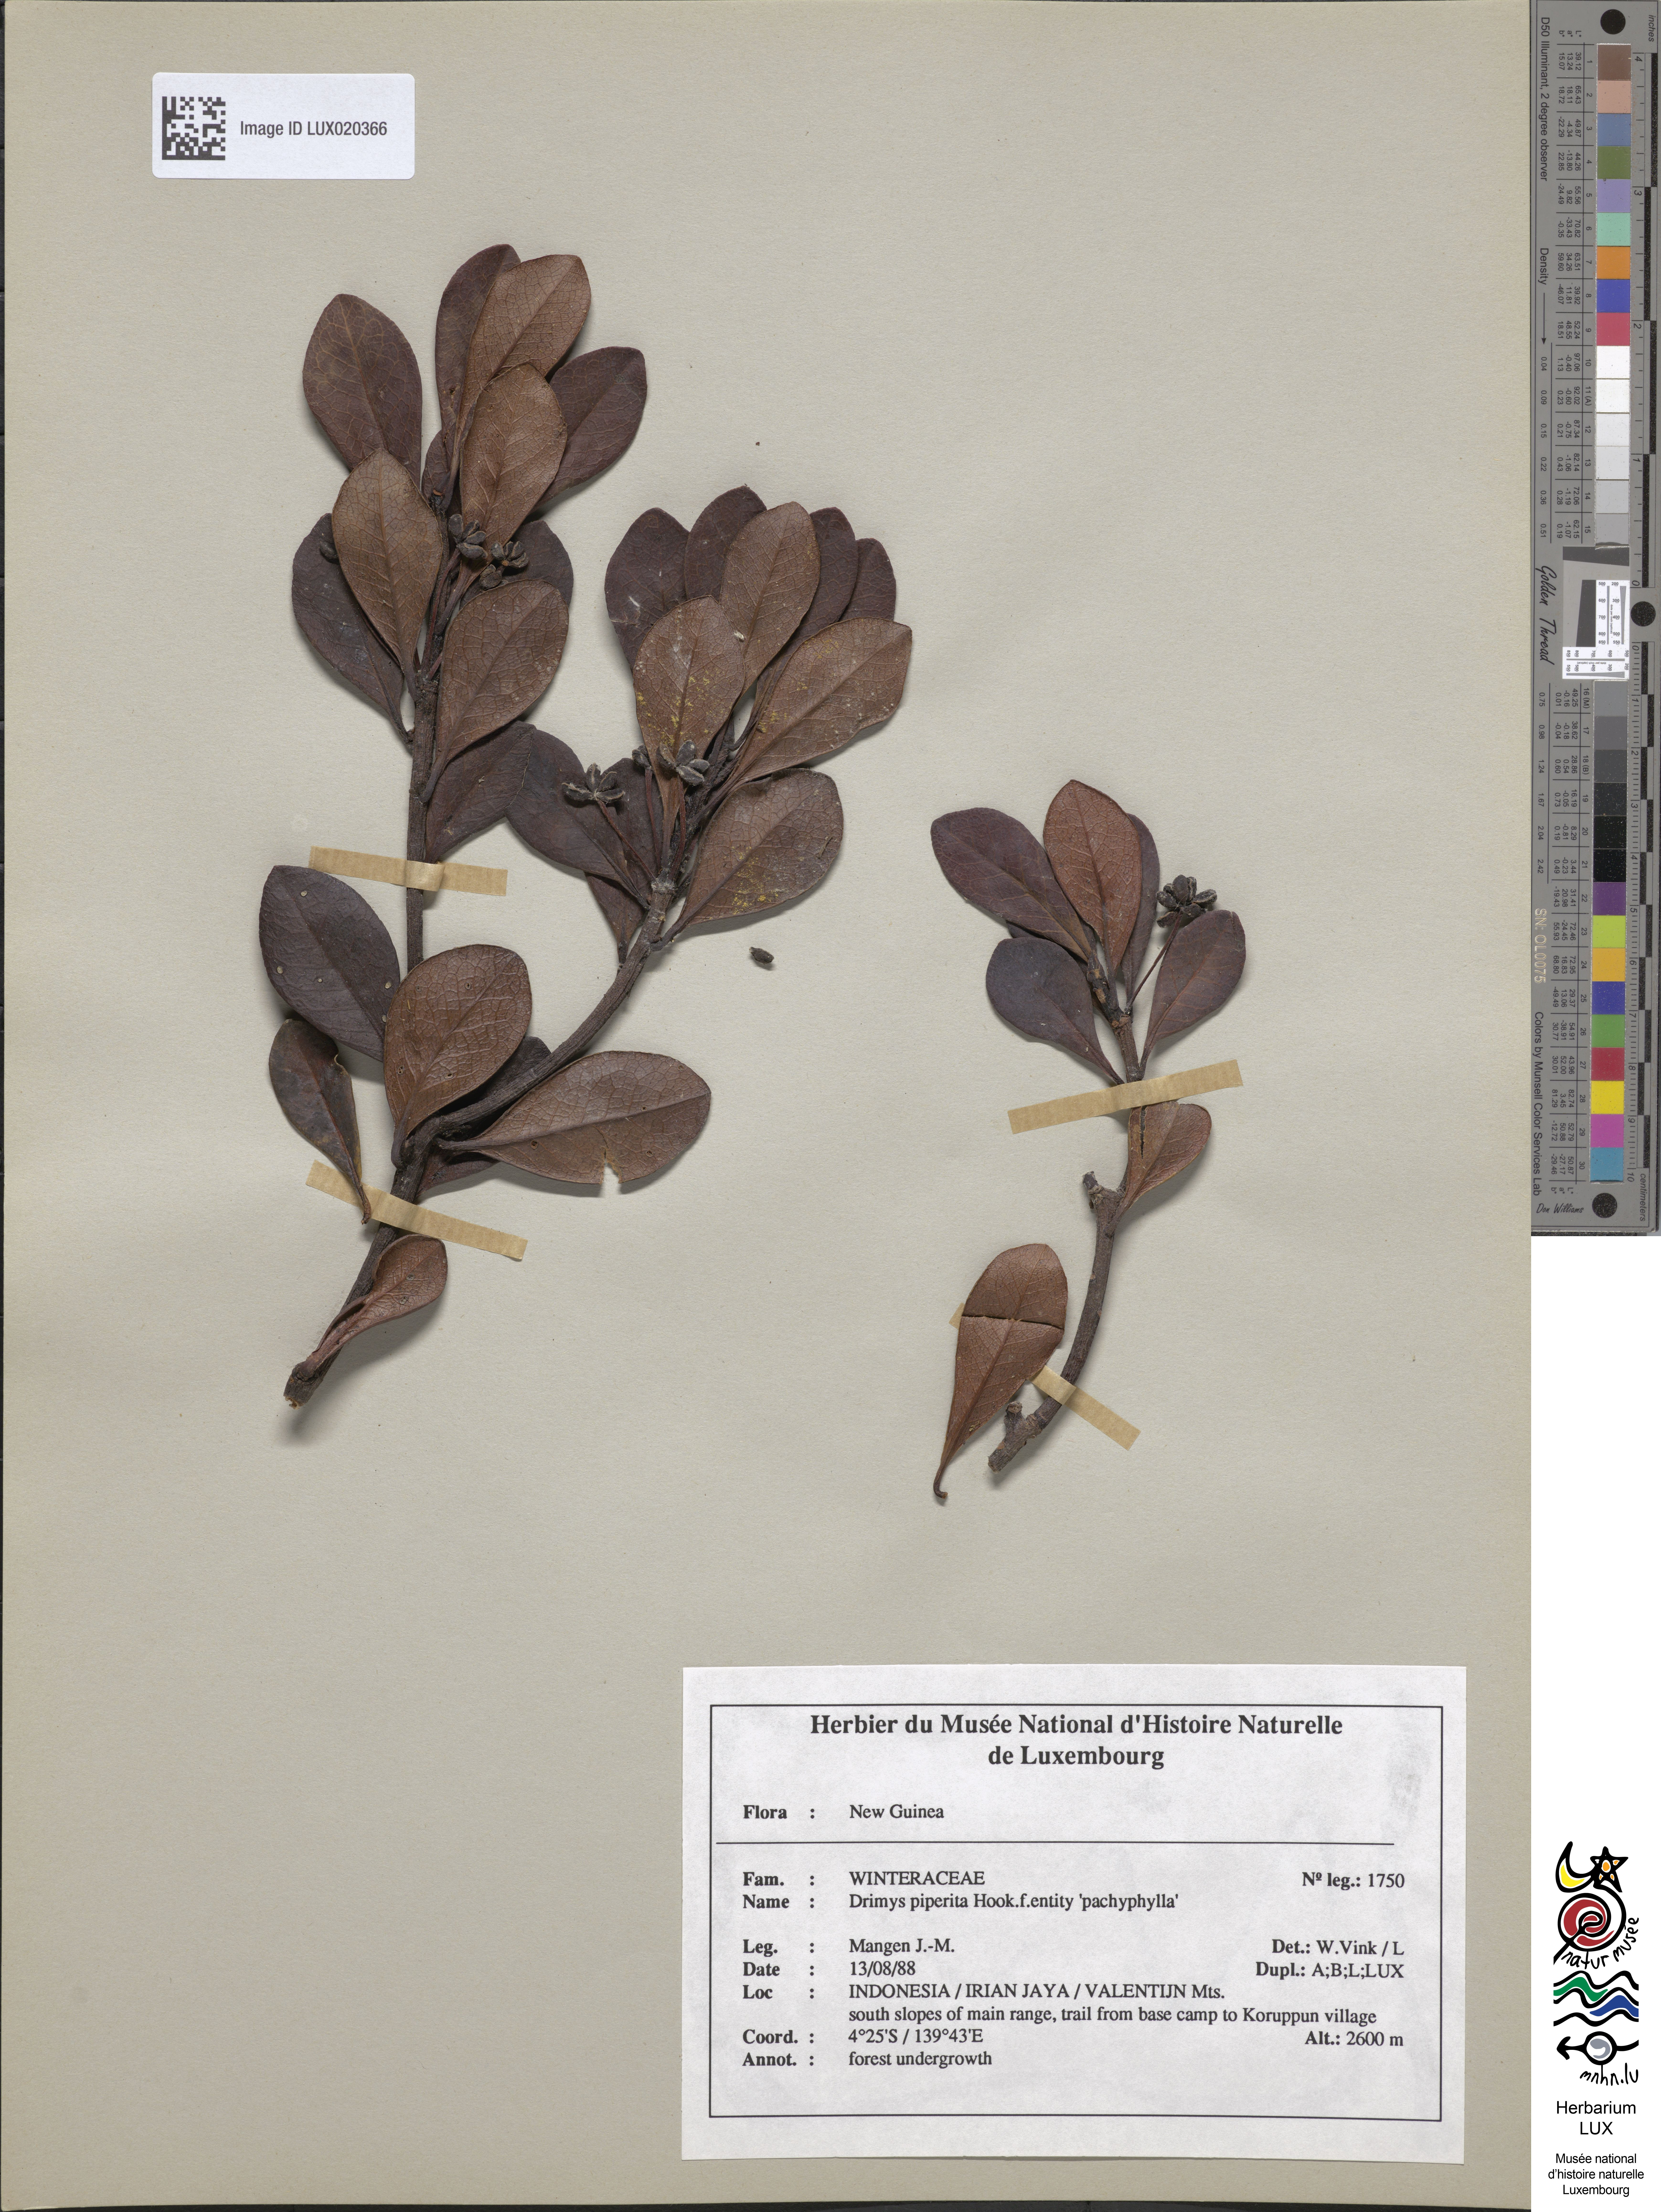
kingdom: Plantae
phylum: Tracheophyta
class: Magnoliopsida
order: Canellales
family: Winteraceae
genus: Drimys
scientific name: Drimys piperita
